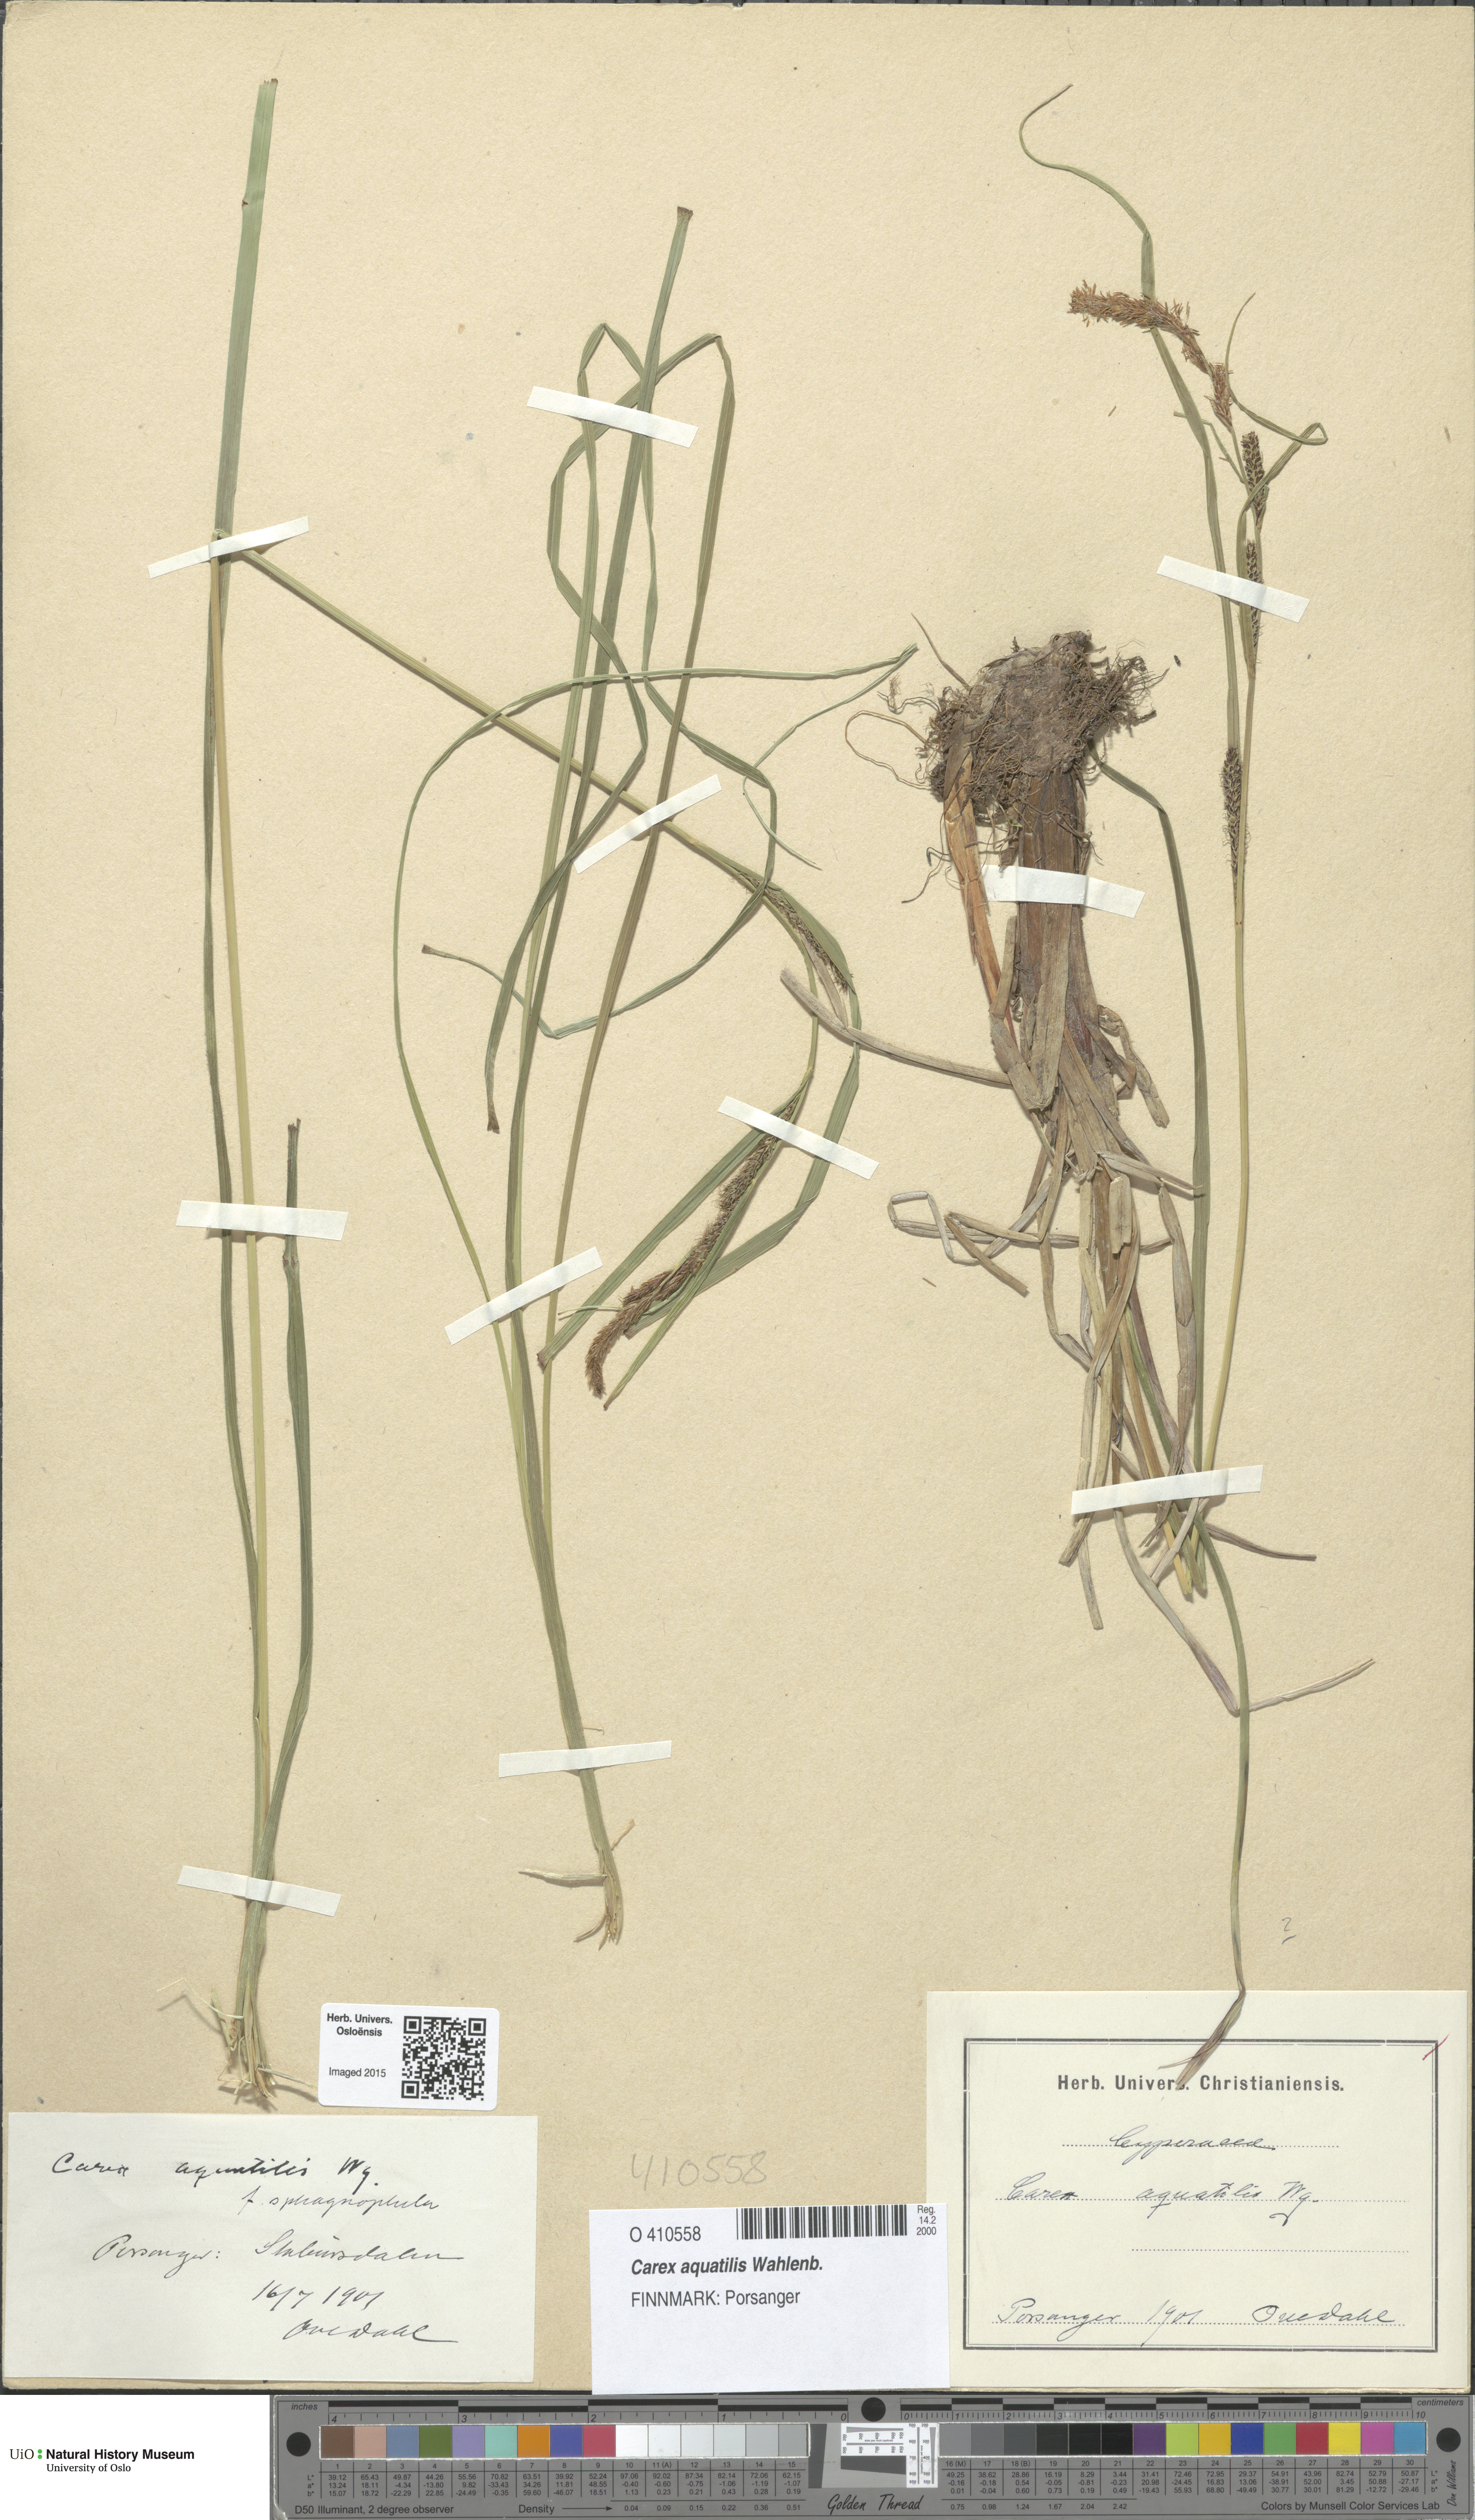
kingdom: Plantae
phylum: Tracheophyta
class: Liliopsida
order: Poales
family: Cyperaceae
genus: Carex
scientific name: Carex aquatilis
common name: Water sedge
